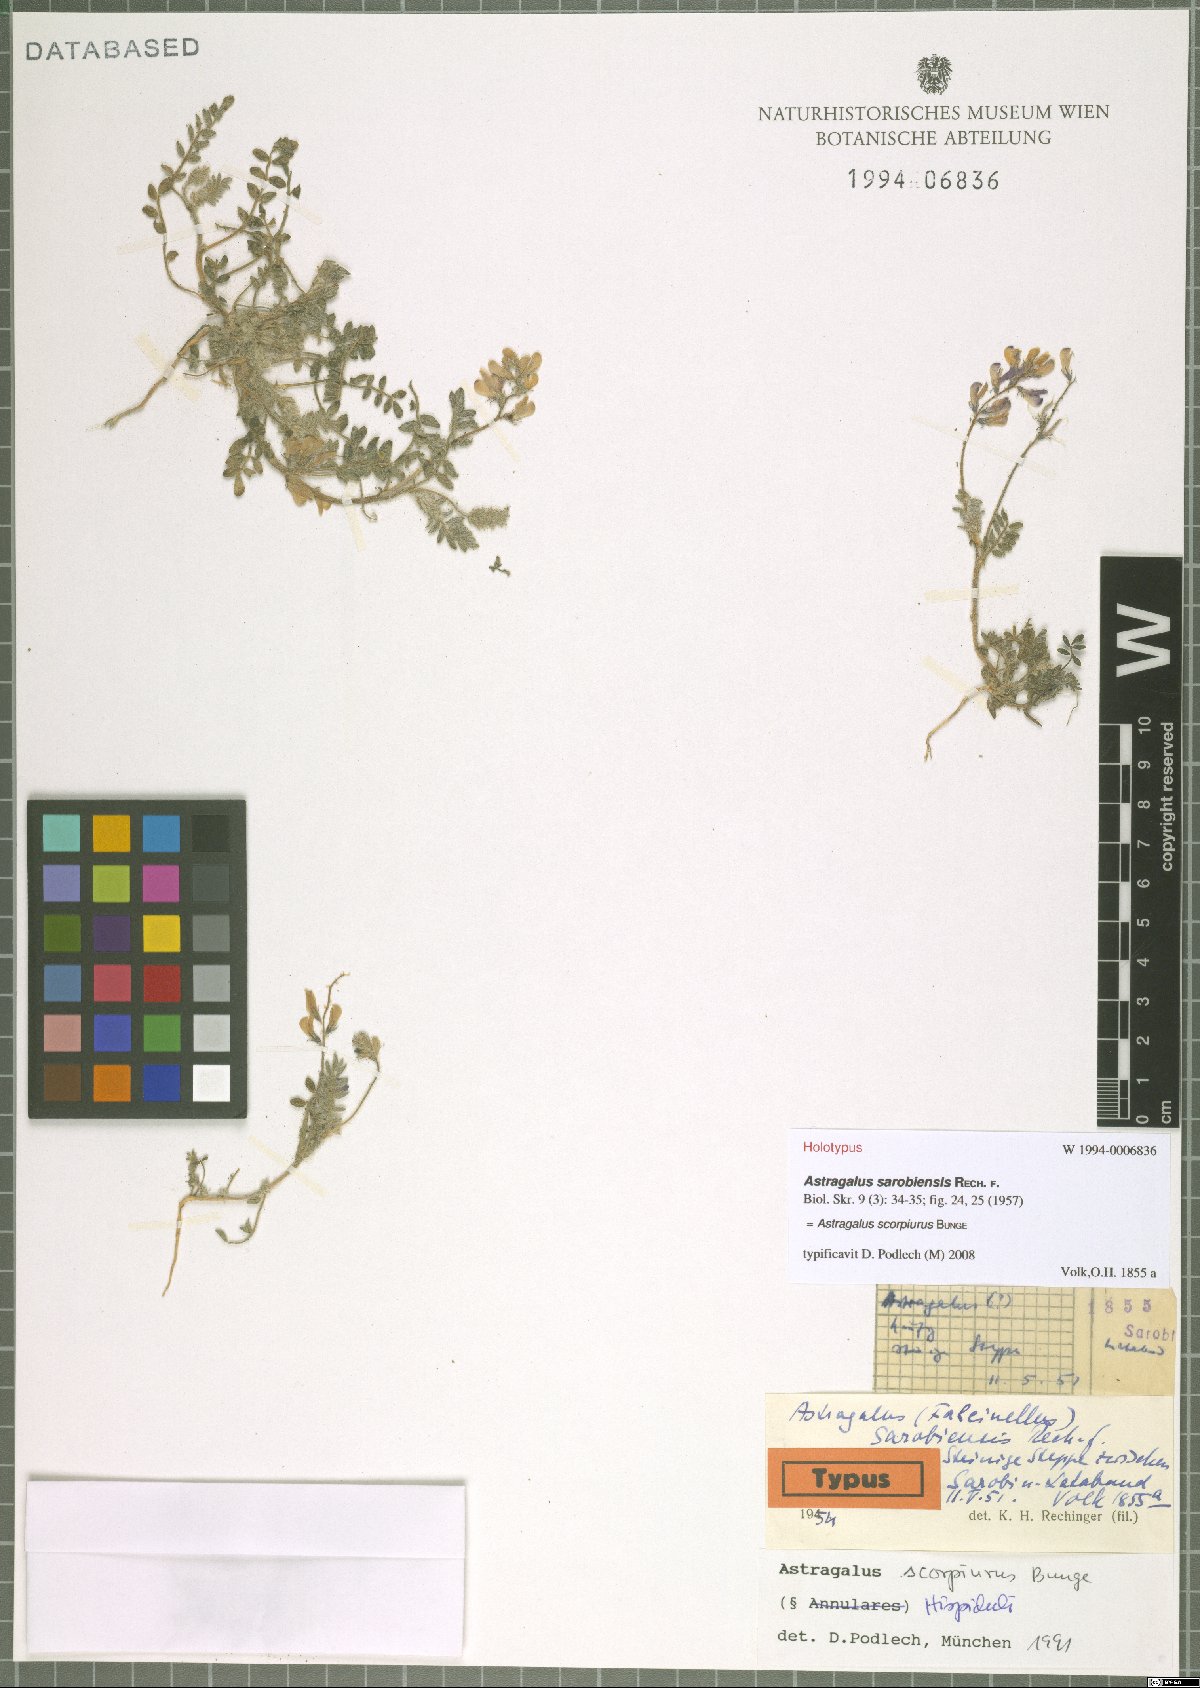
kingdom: Plantae
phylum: Tracheophyta
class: Magnoliopsida
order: Fabales
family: Fabaceae
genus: Astragalus
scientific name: Astragalus scorpiurus
